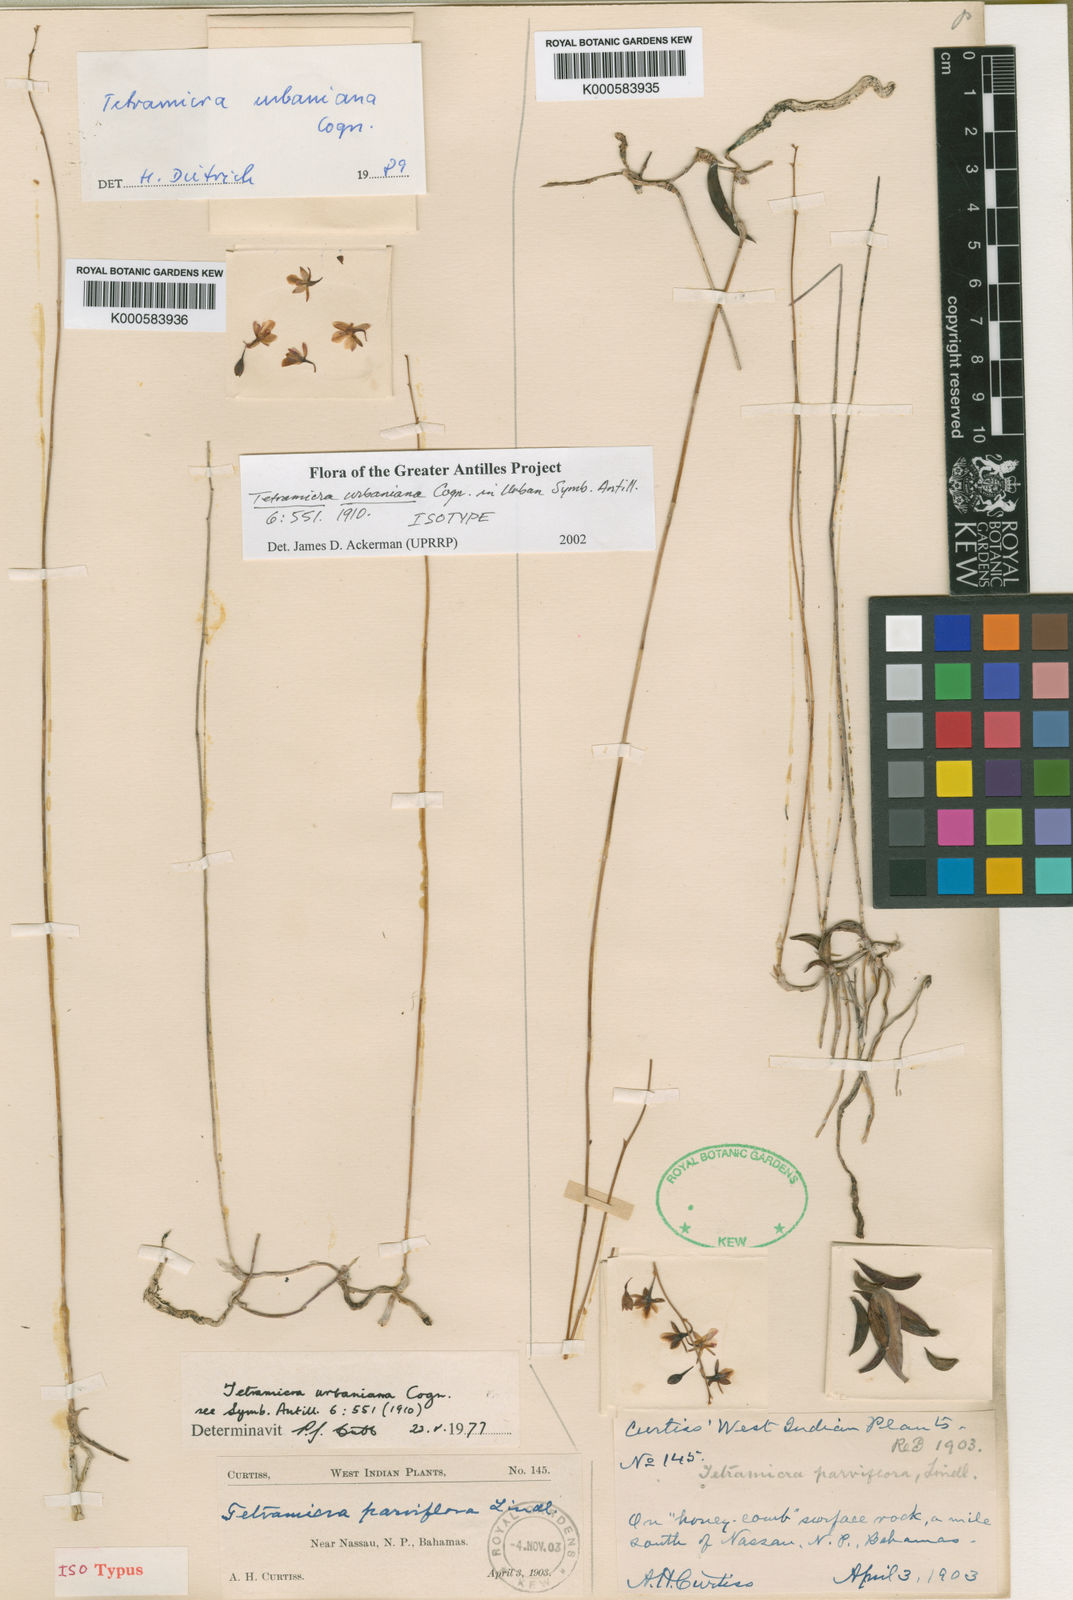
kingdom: Plantae
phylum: Tracheophyta
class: Liliopsida
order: Asparagales
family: Orchidaceae
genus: Tetramicra
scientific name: Tetramicra parviflora
